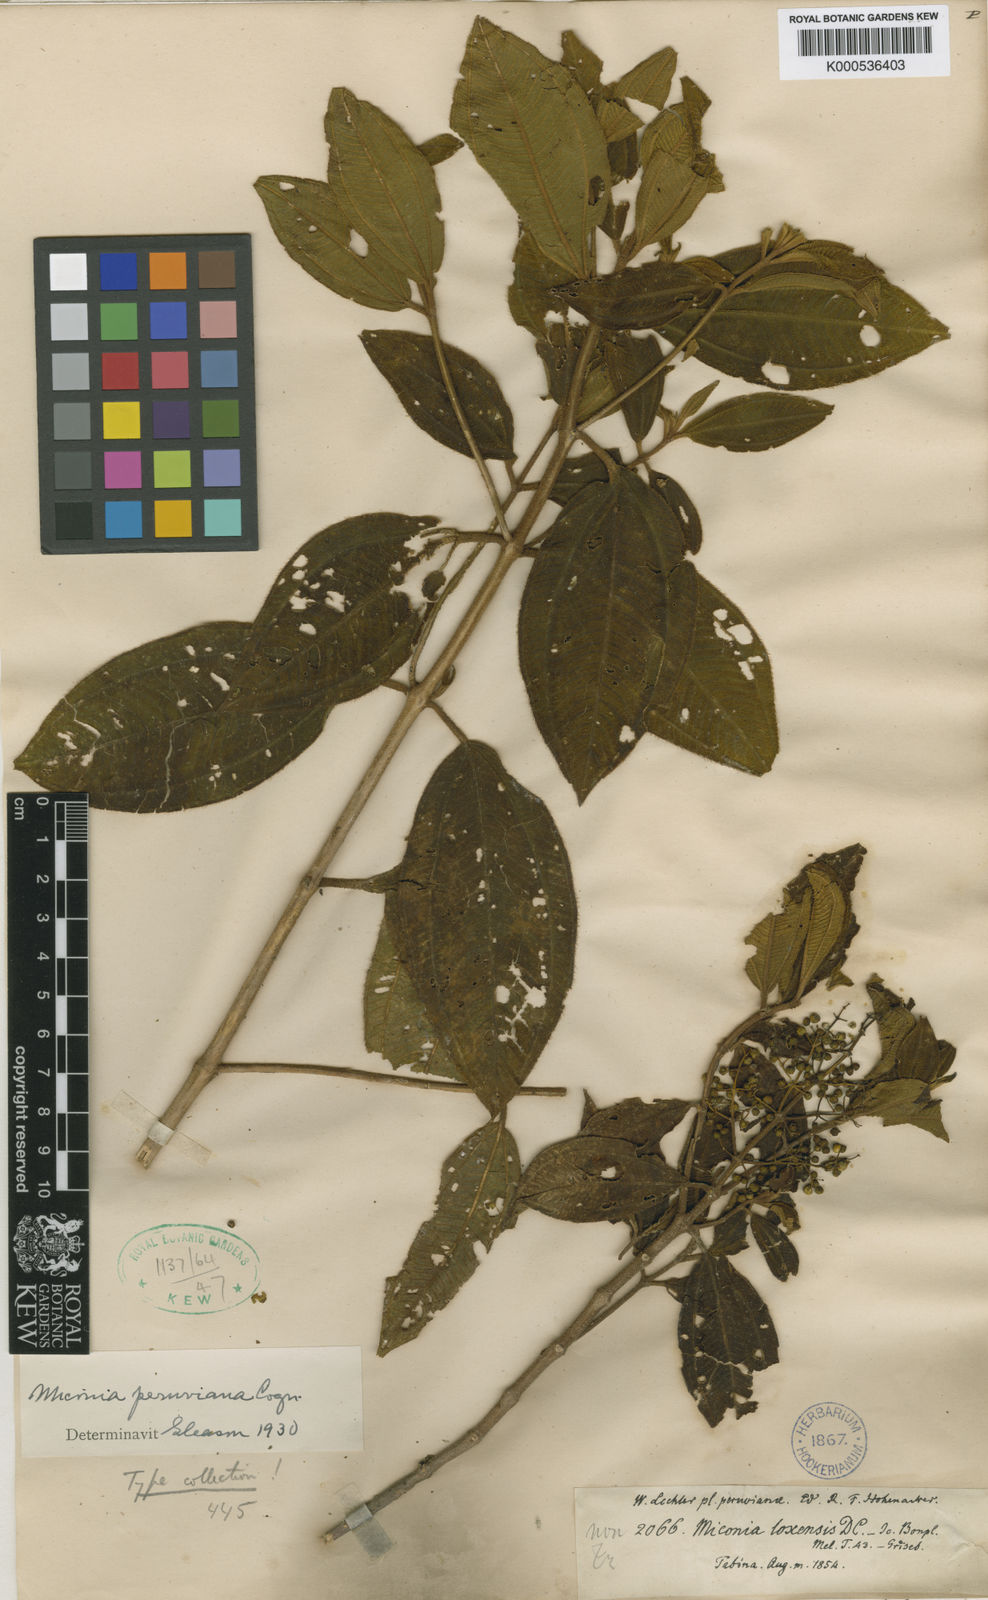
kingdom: Plantae
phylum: Tracheophyta
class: Magnoliopsida
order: Myrtales
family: Melastomataceae
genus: Miconia
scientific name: Miconia fabianiana
